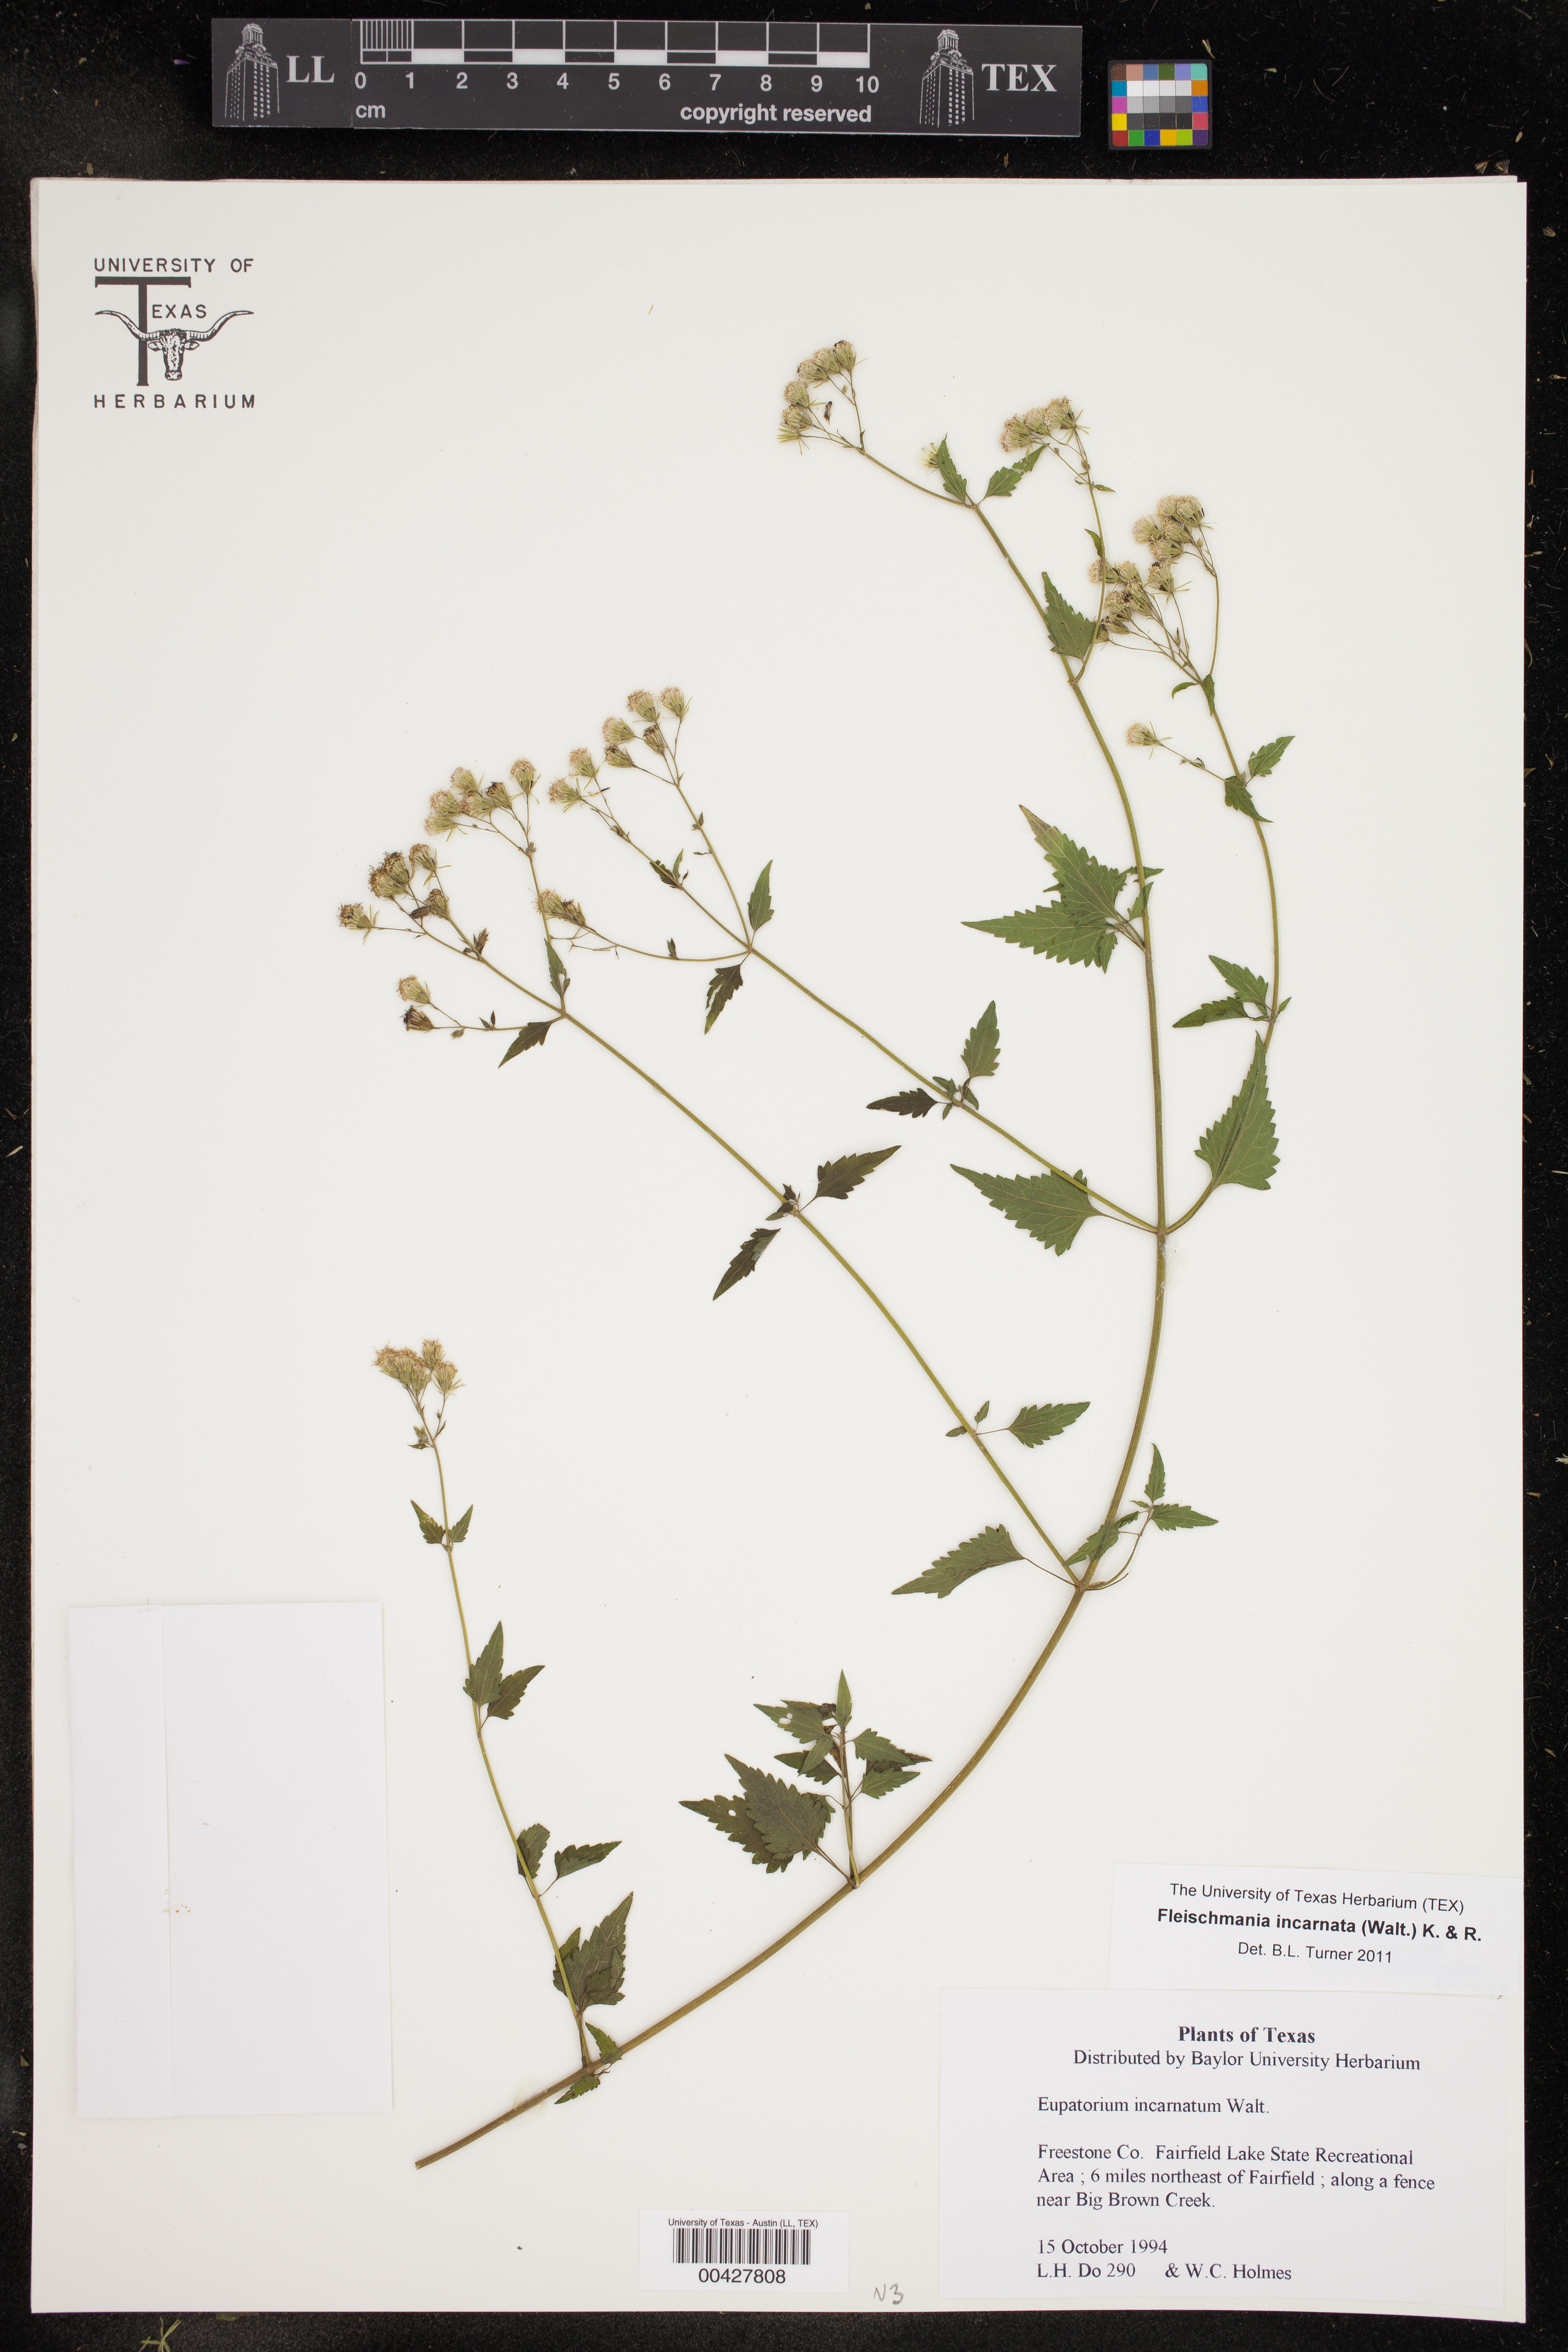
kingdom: Plantae
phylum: Tracheophyta
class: Magnoliopsida
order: Asterales
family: Asteraceae
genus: Fleischmannia
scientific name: Fleischmannia incarnata
